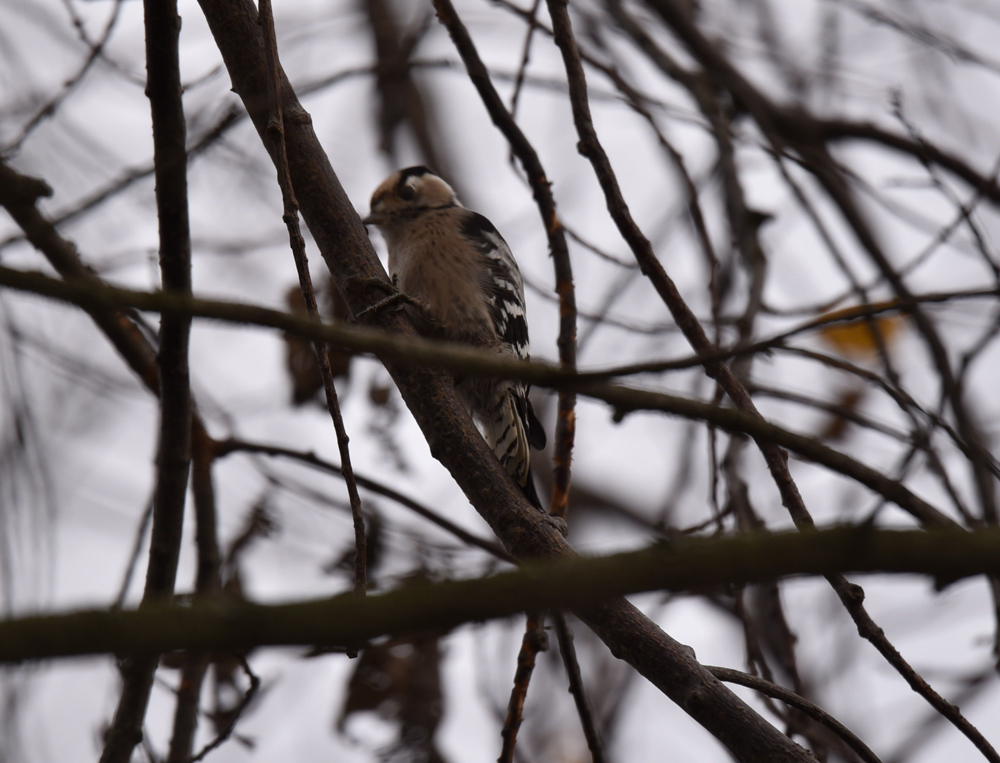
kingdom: Animalia
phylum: Chordata
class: Aves
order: Piciformes
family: Picidae
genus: Dryobates
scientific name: Dryobates minor
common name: Lesser spotted woodpecker
